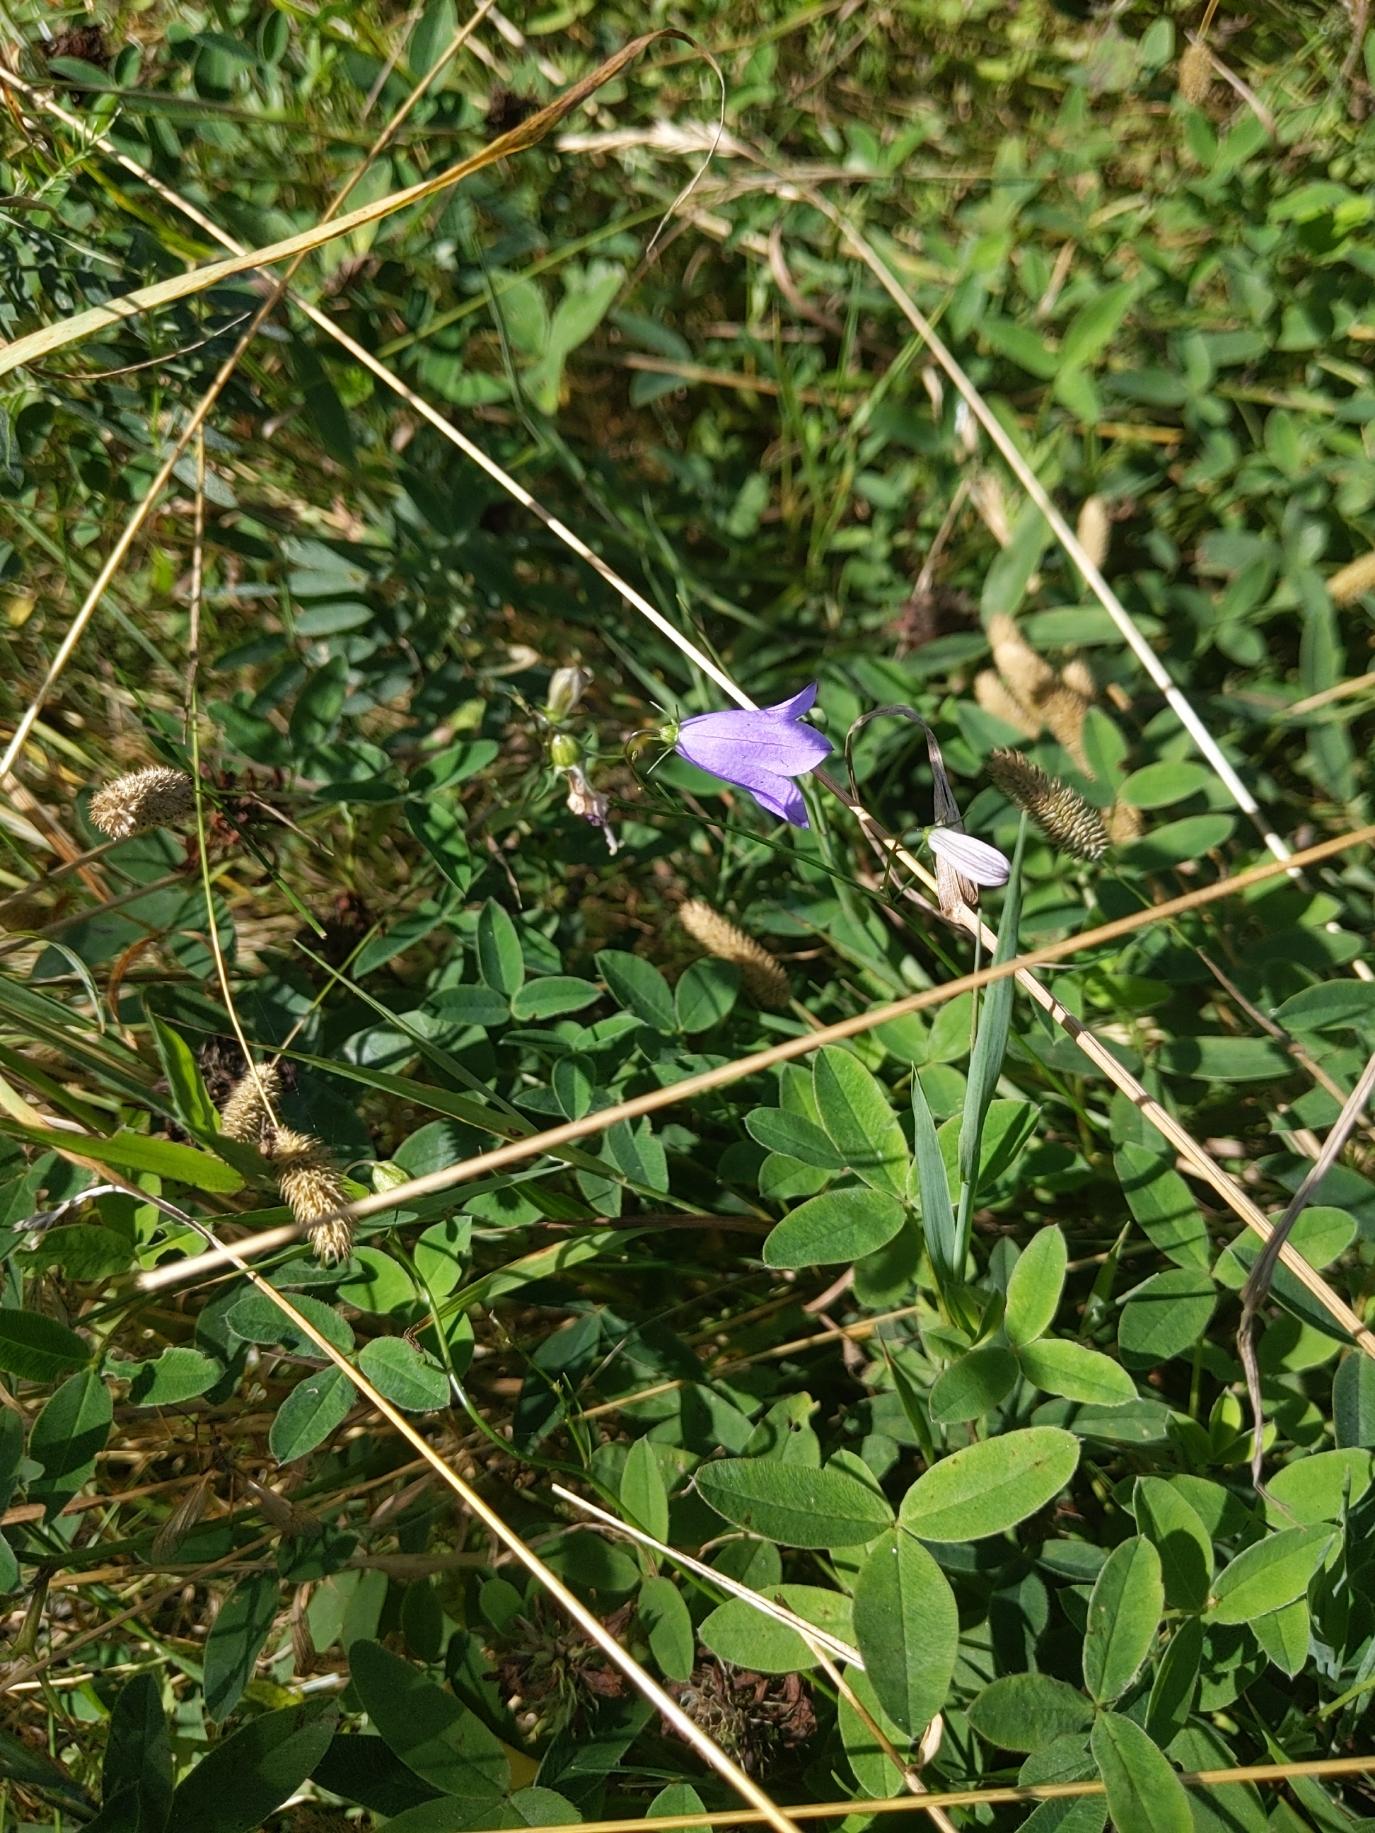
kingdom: Plantae
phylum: Tracheophyta
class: Magnoliopsida
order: Asterales
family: Campanulaceae
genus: Campanula
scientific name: Campanula rotundifolia
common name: Liden klokke
